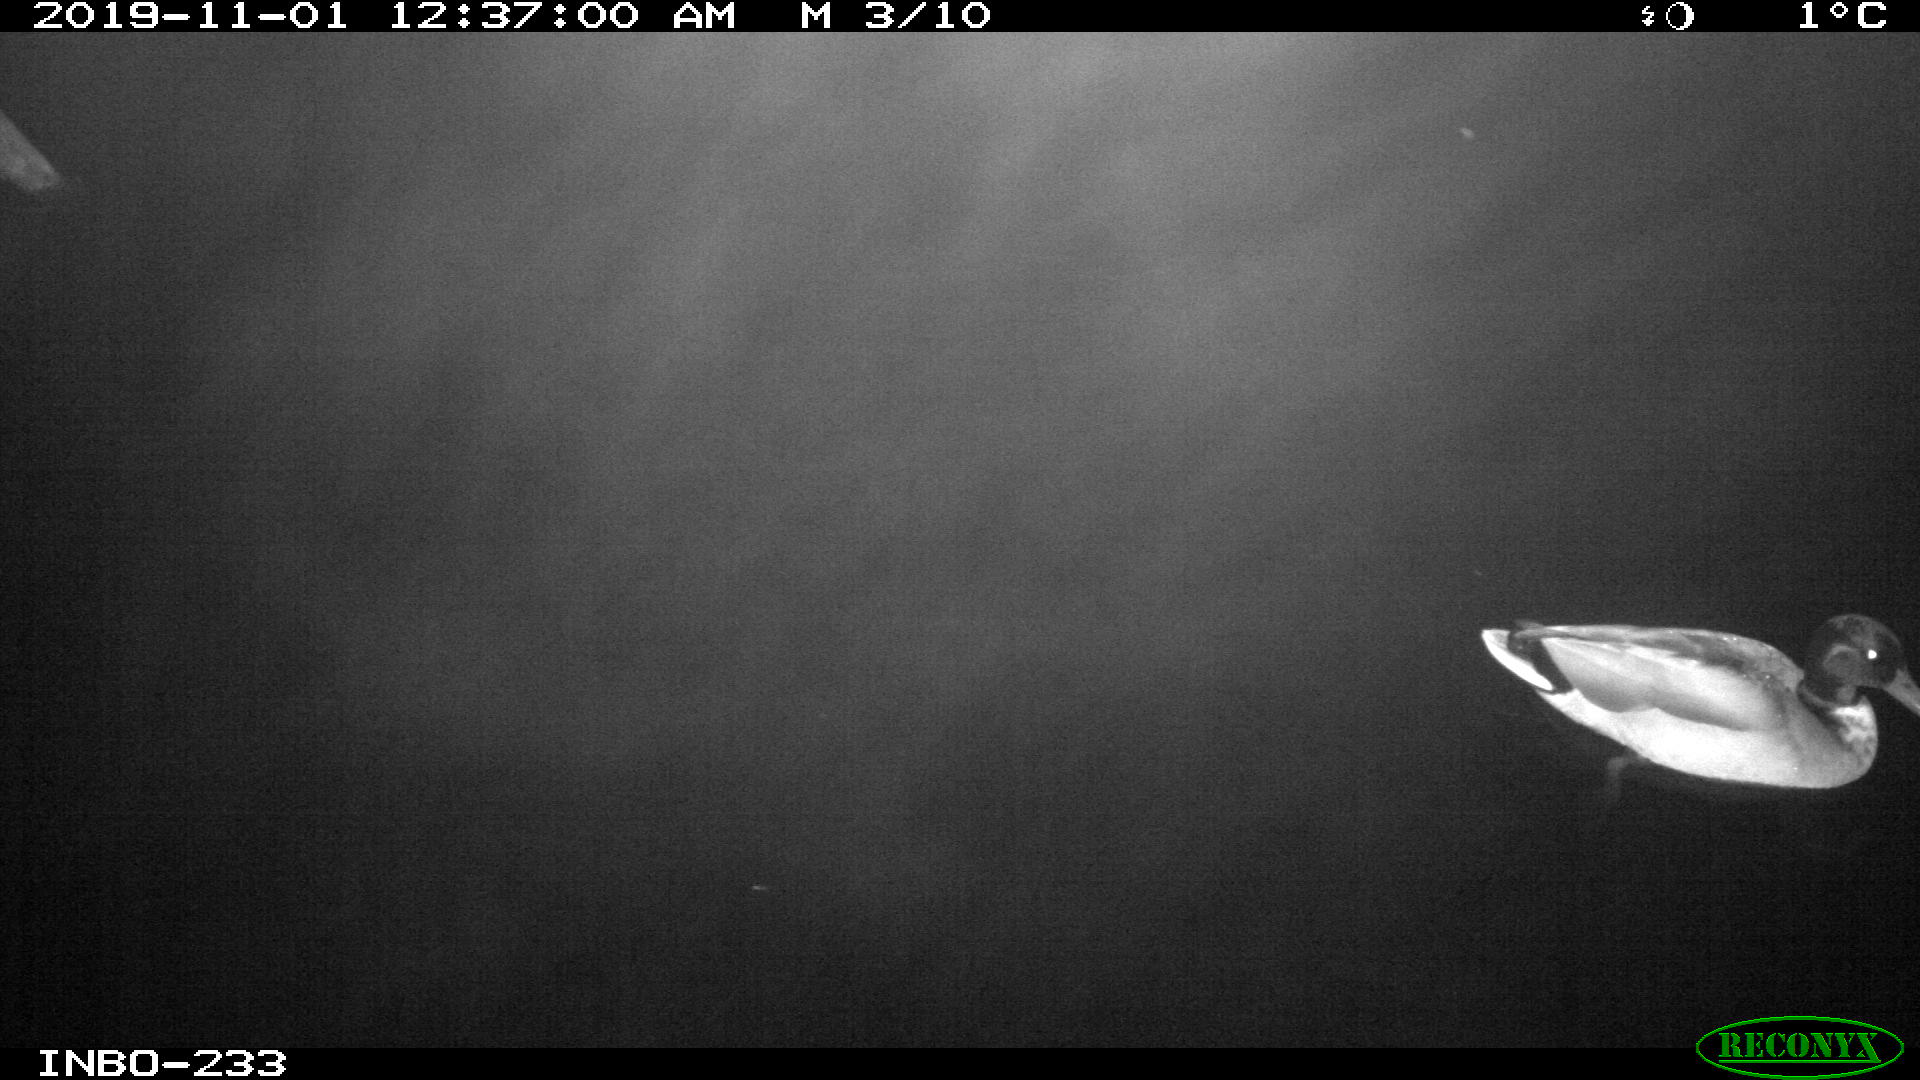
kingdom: Animalia
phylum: Chordata
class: Aves
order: Anseriformes
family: Anatidae
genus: Anas
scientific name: Anas platyrhynchos
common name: Mallard
